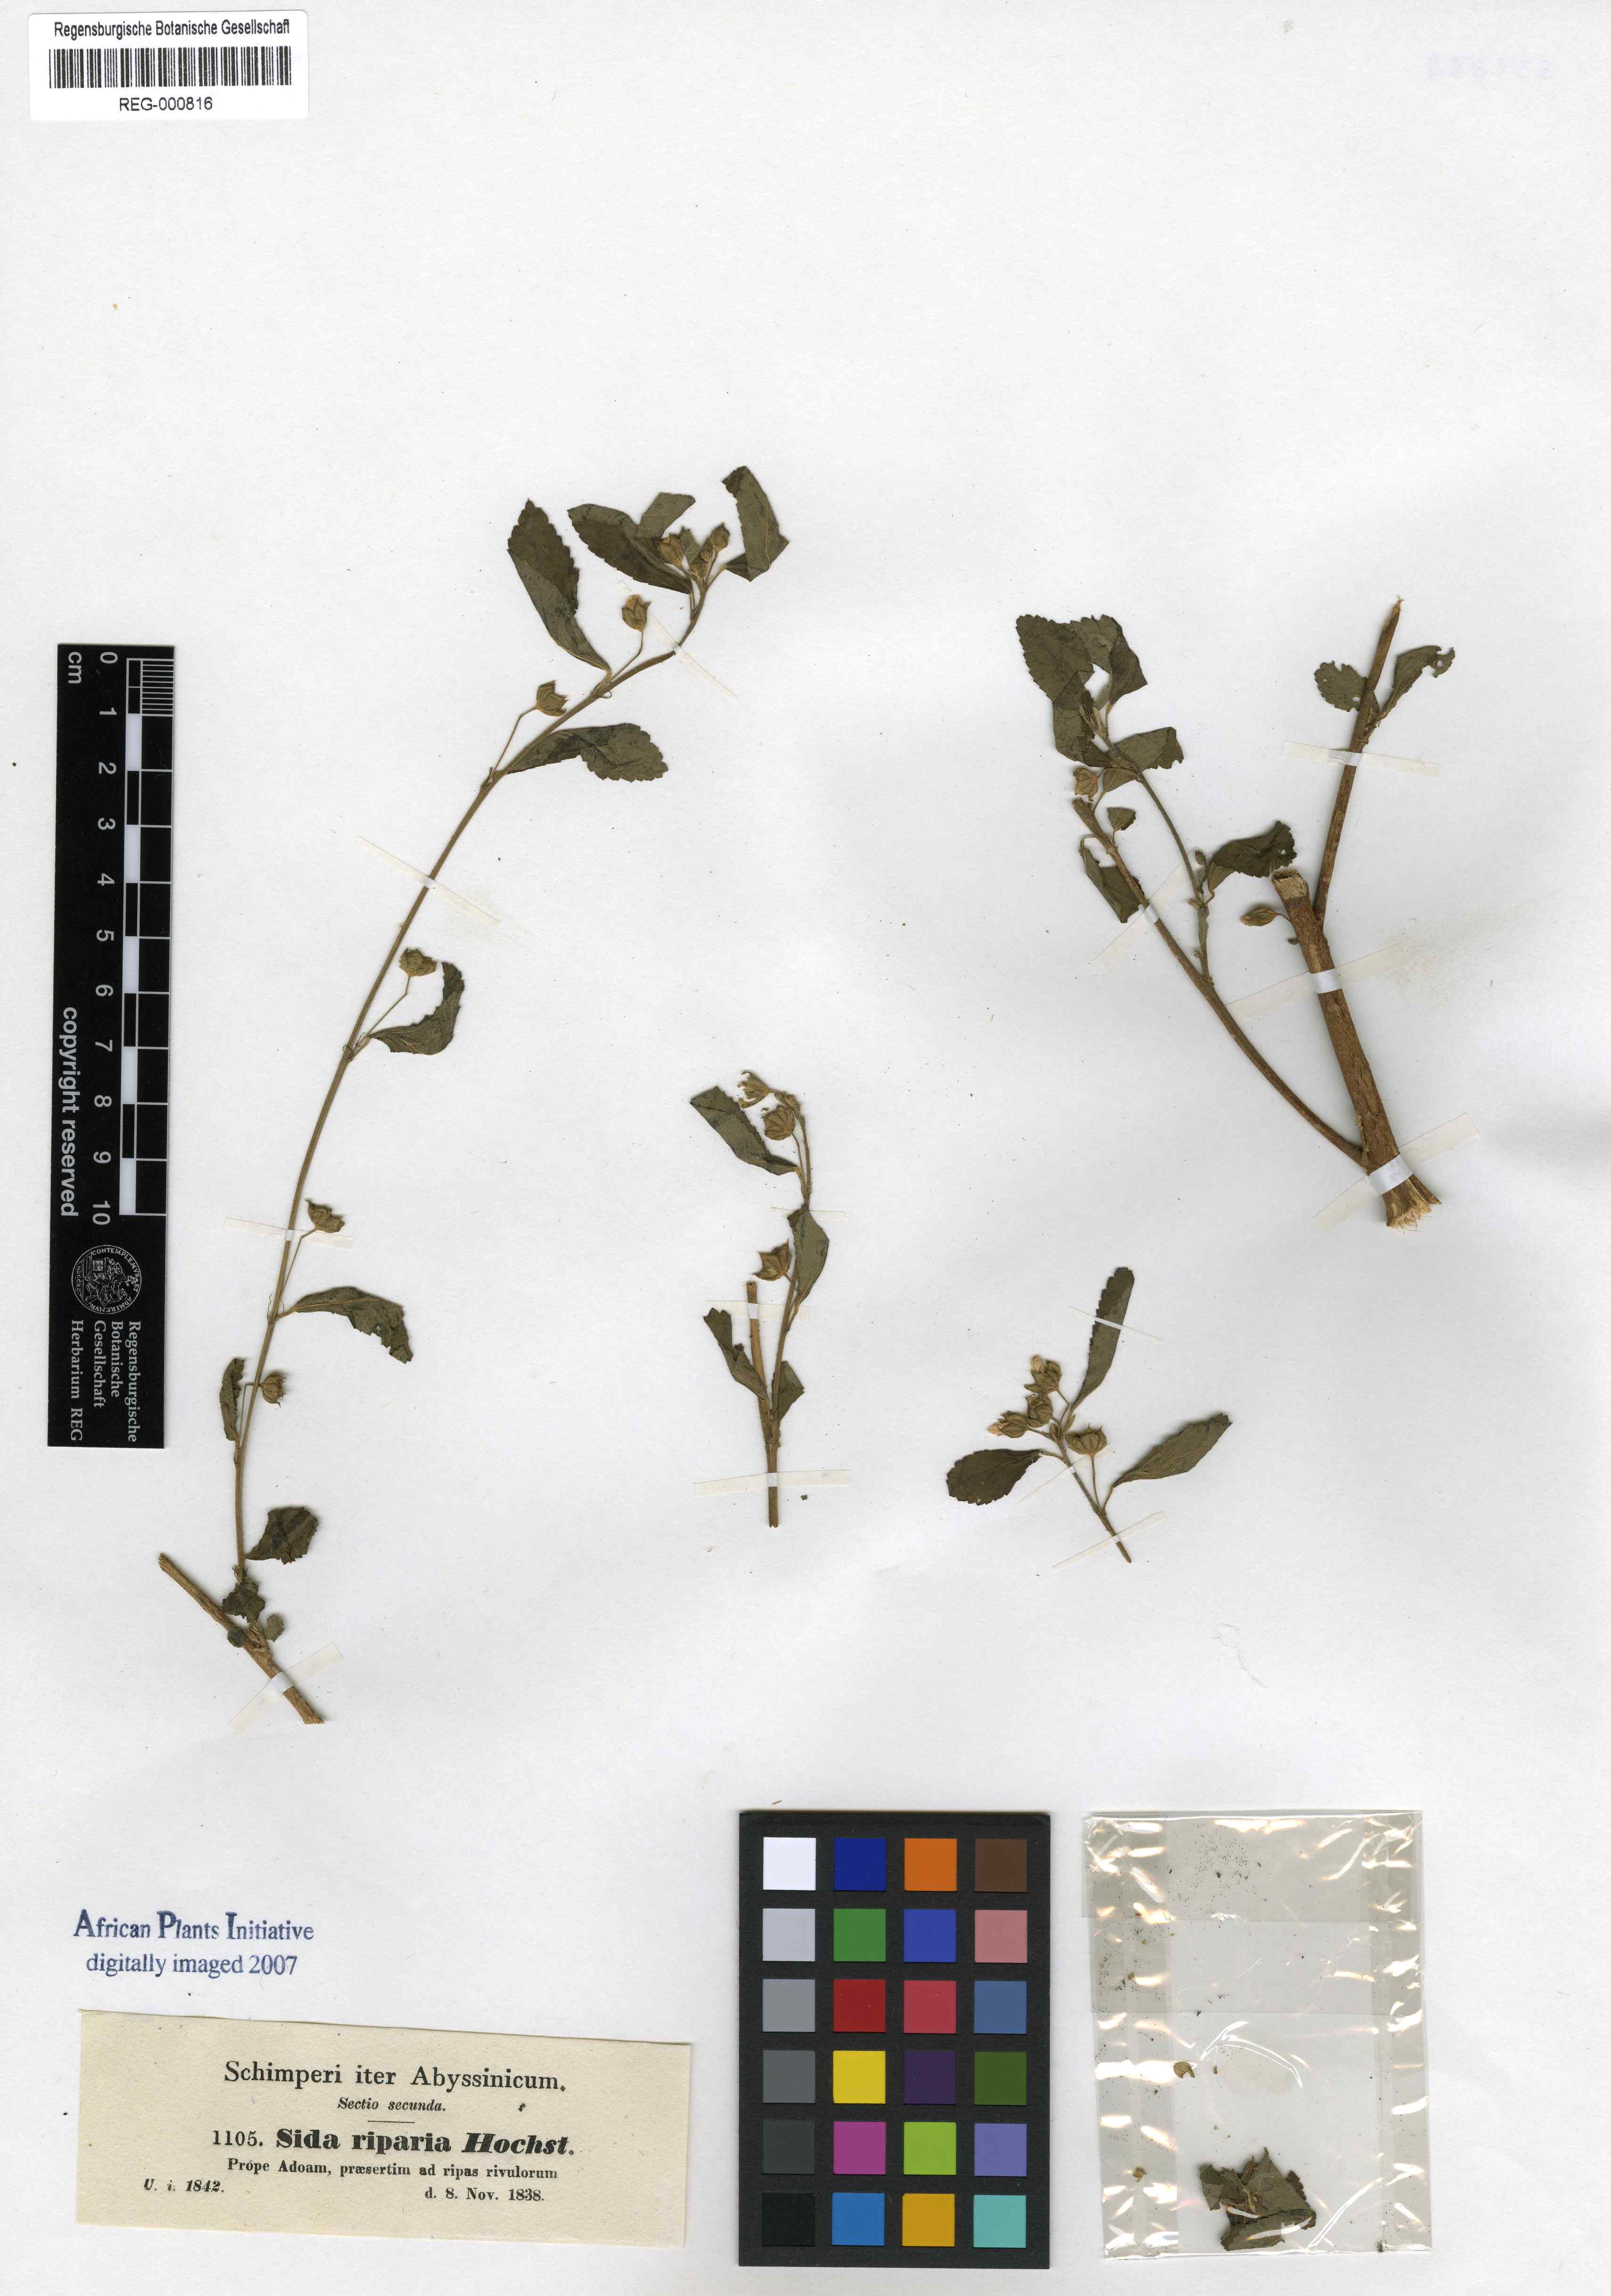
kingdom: Plantae
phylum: Tracheophyta
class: Magnoliopsida
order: Malvales
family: Malvaceae
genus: Sida
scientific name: Sida rhombifolia
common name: Queensland-hemp
